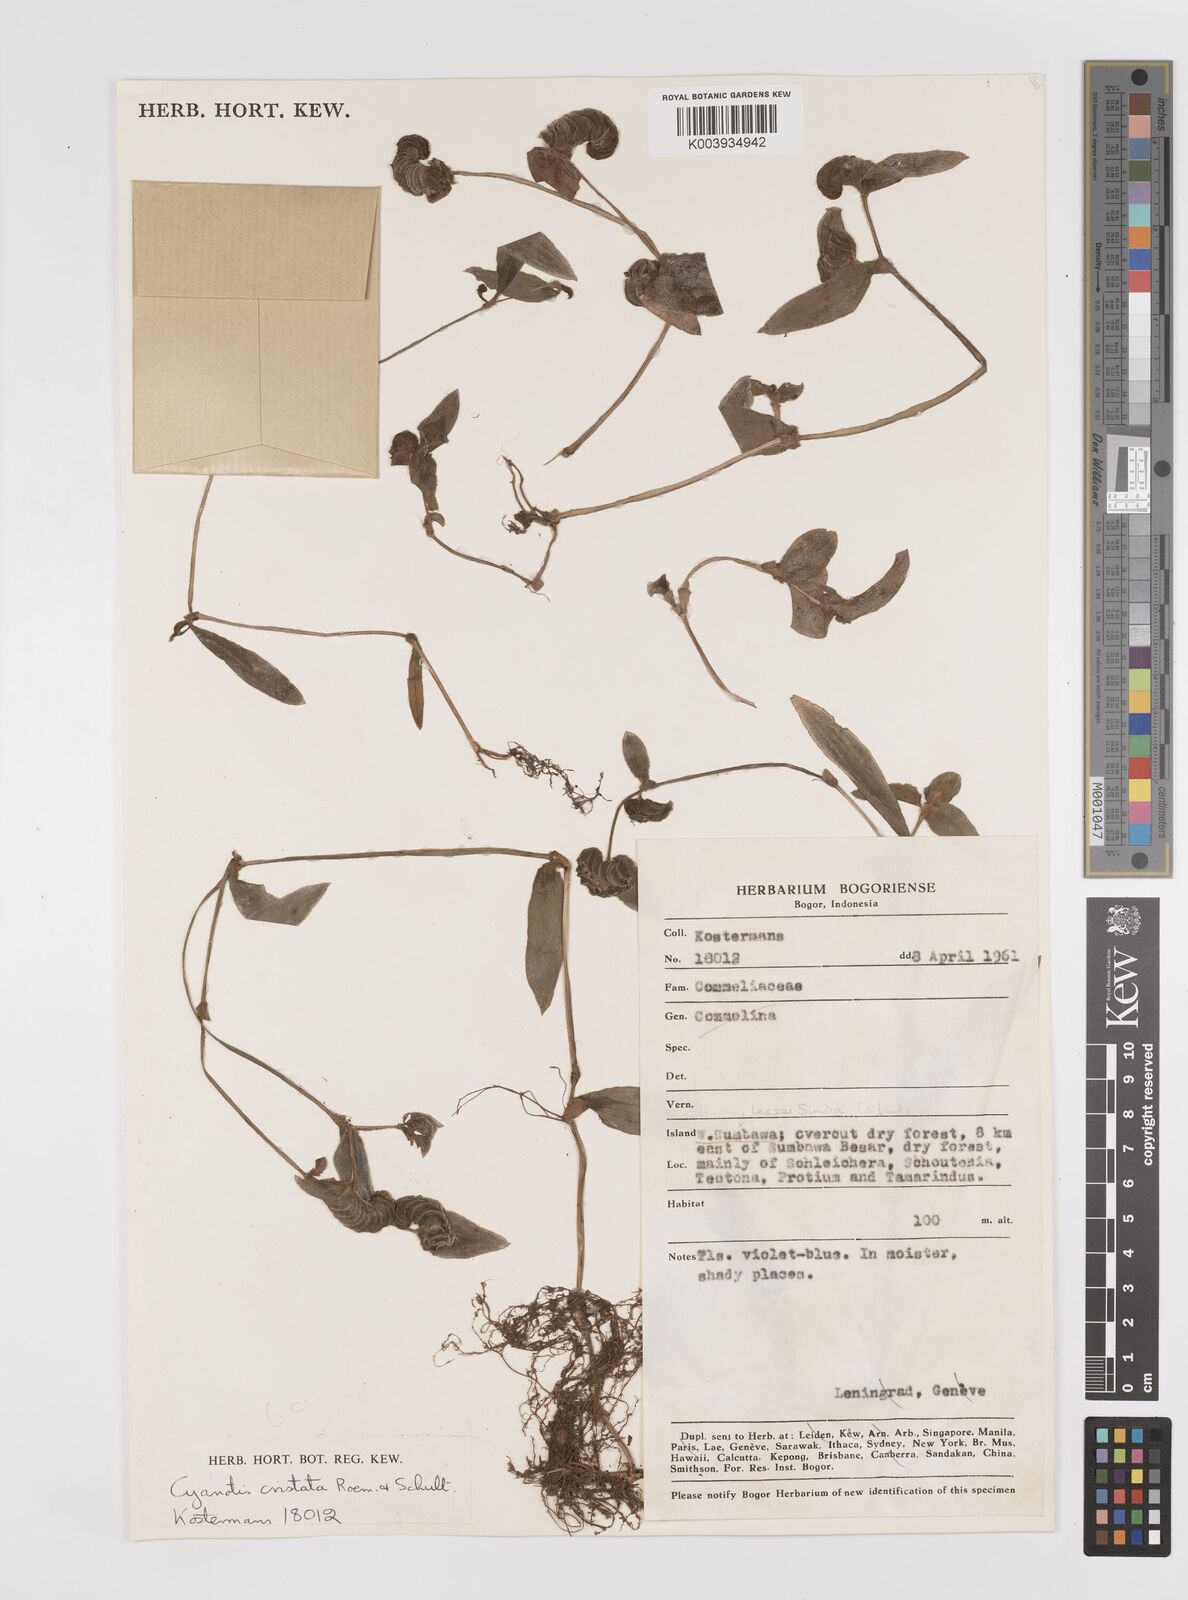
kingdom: Plantae
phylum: Tracheophyta
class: Liliopsida
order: Commelinales
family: Commelinaceae
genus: Cyanotis
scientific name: Cyanotis cristata
